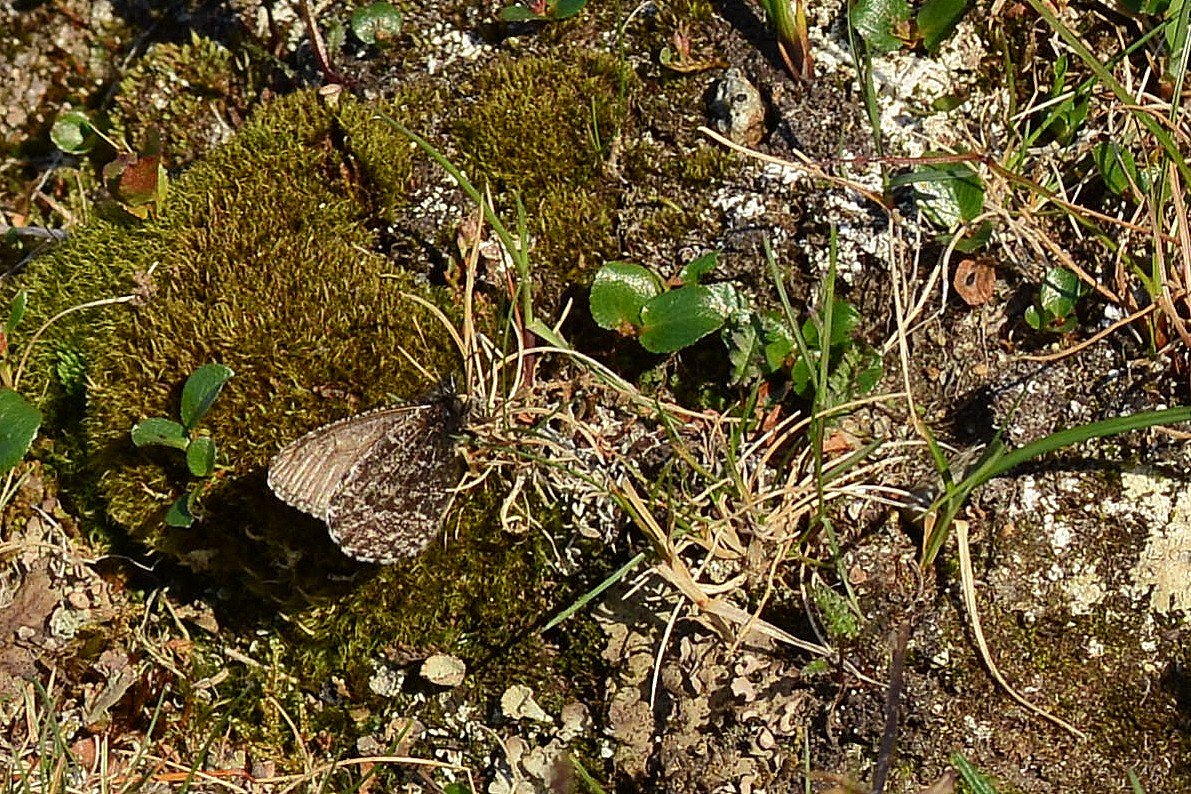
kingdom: Animalia
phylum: Arthropoda
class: Insecta
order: Lepidoptera
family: Nymphalidae
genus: Oeneis
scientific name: Oeneis melissa
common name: Melissa Arctic
